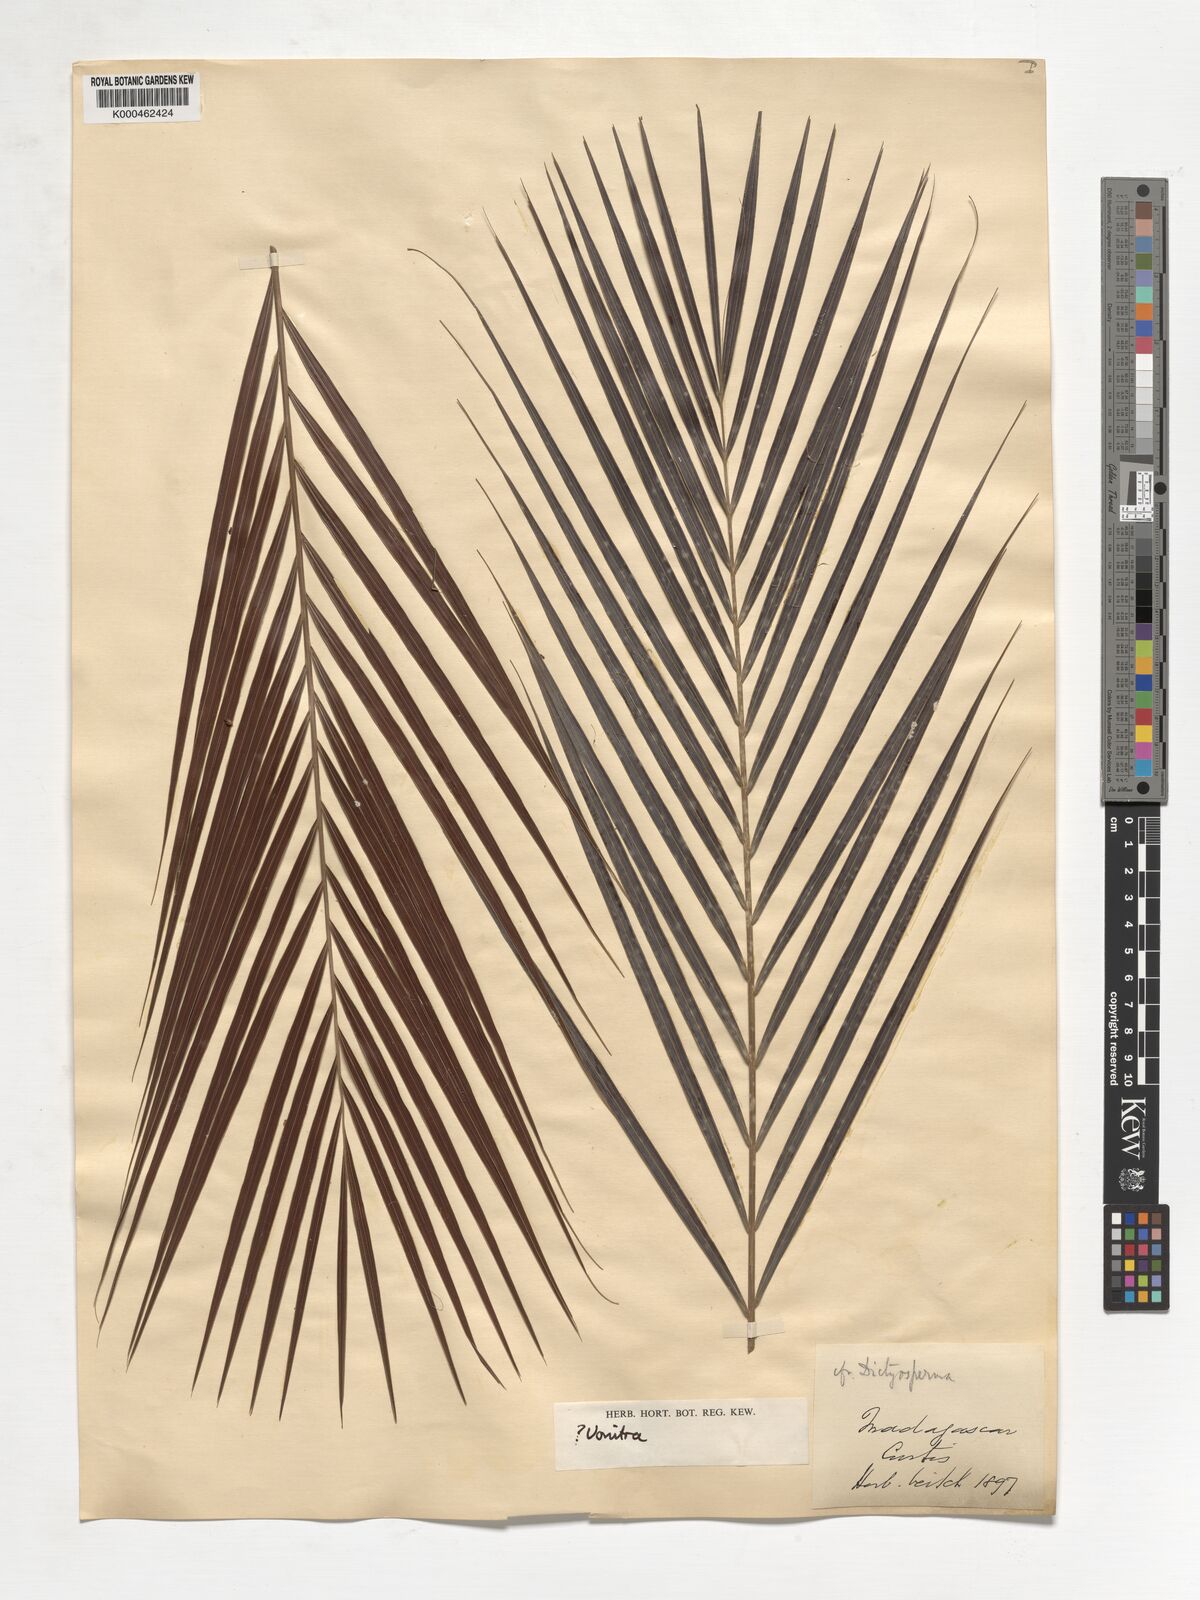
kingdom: Plantae
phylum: Tracheophyta
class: Liliopsida
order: Arecales
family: Arecaceae
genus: Dypsis
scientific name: Dypsis
